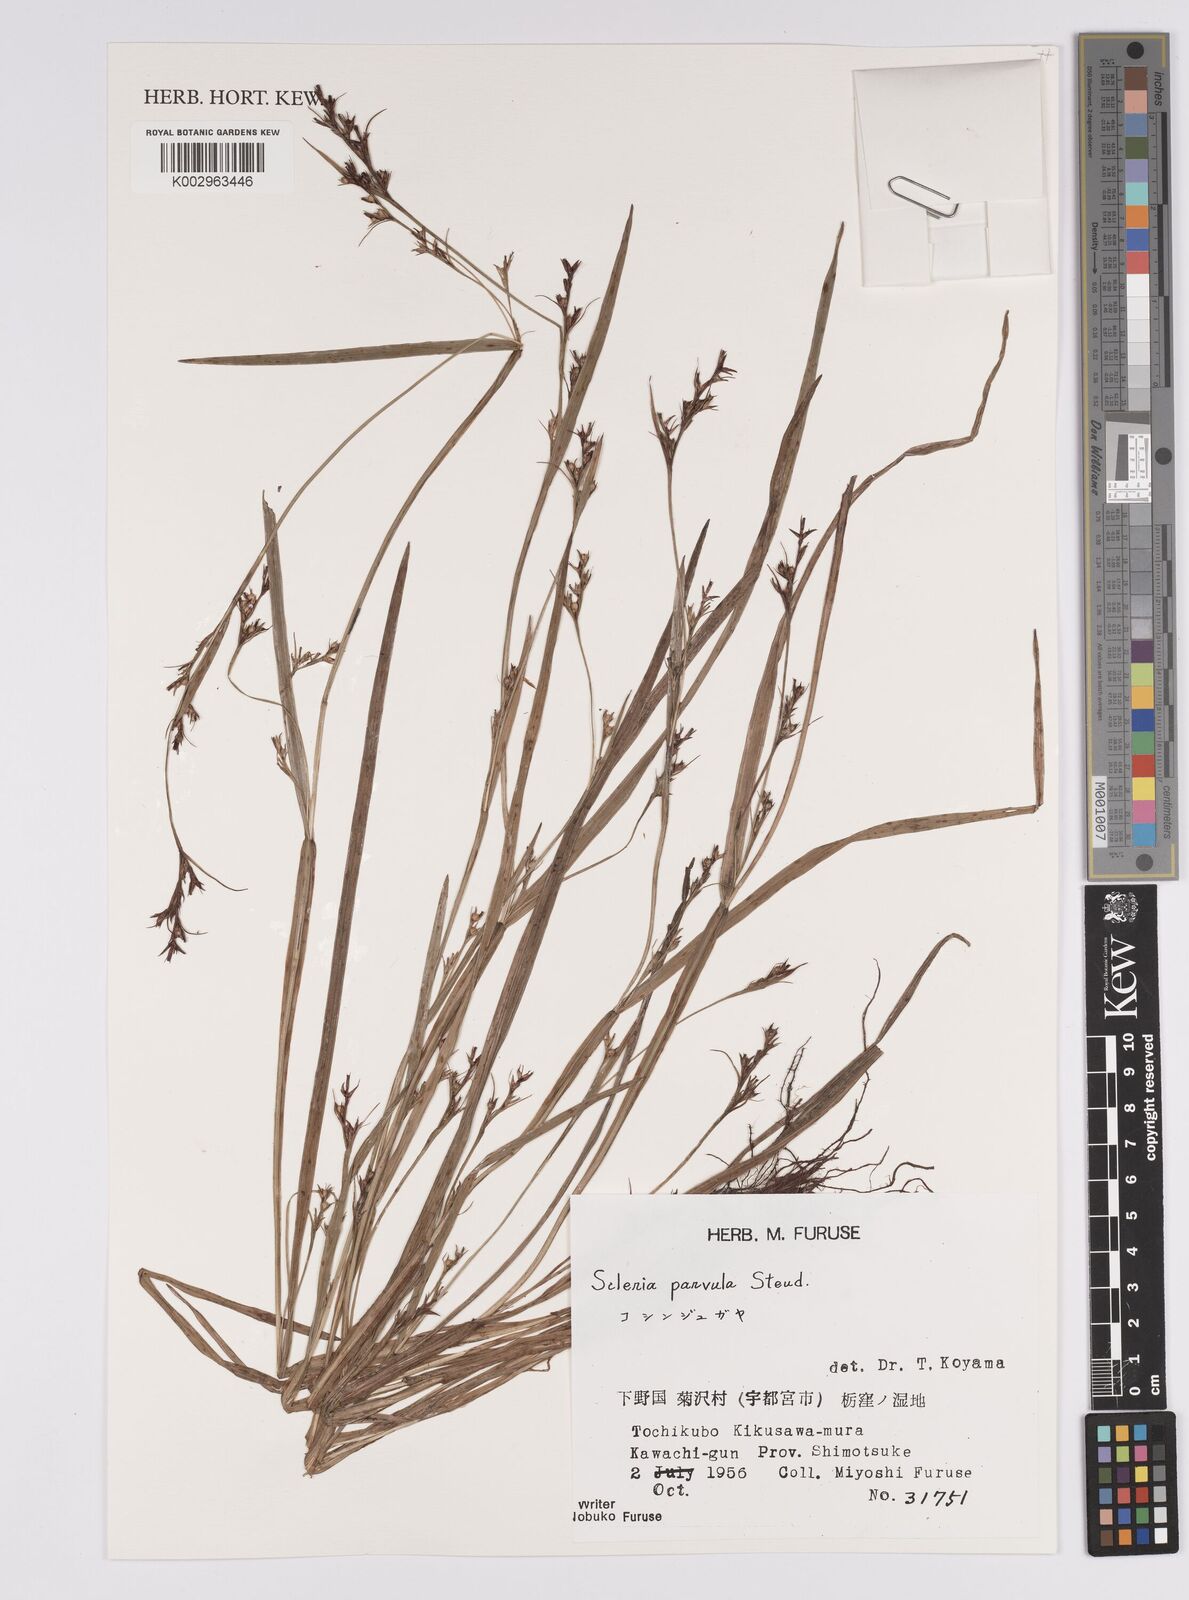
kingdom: Plantae
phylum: Tracheophyta
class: Liliopsida
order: Poales
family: Cyperaceae
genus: Scleria
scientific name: Scleria parvula
